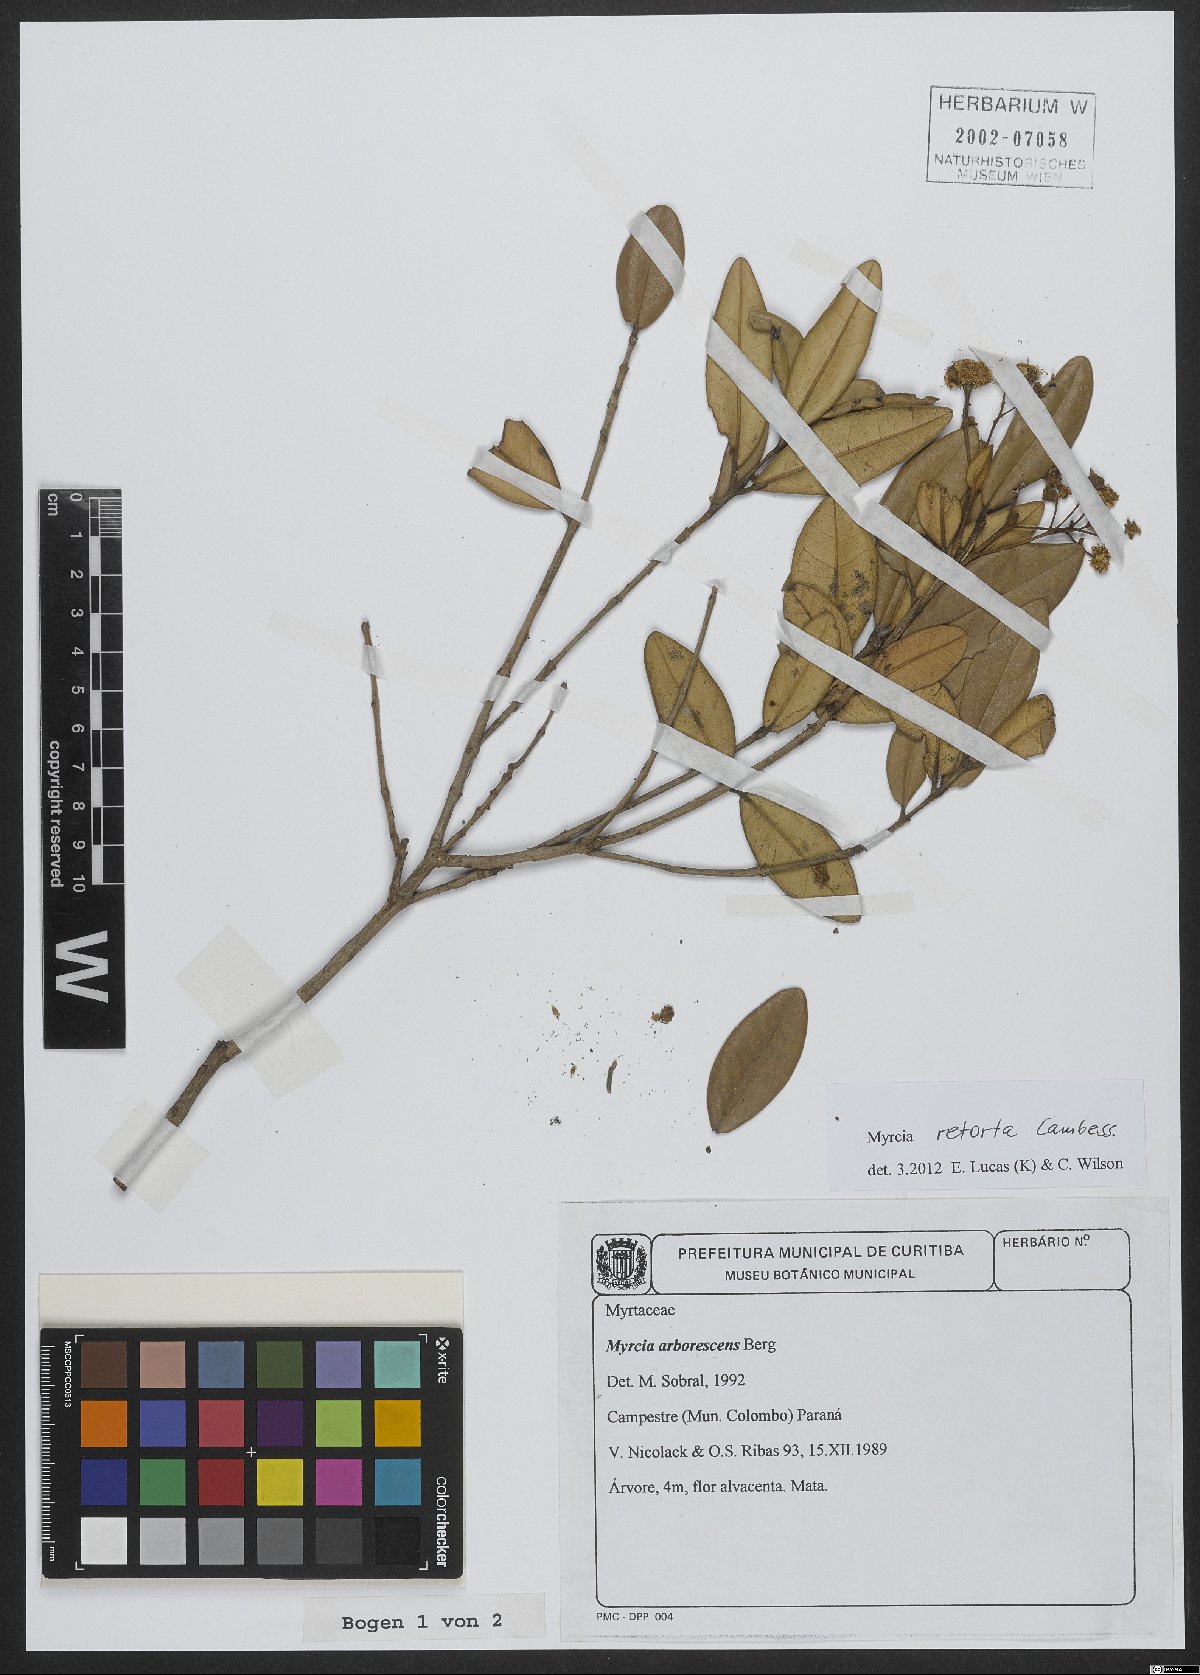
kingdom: Plantae
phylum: Tracheophyta
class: Magnoliopsida
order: Myrtales
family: Myrtaceae
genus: Myrcia
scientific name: Myrcia retorta
